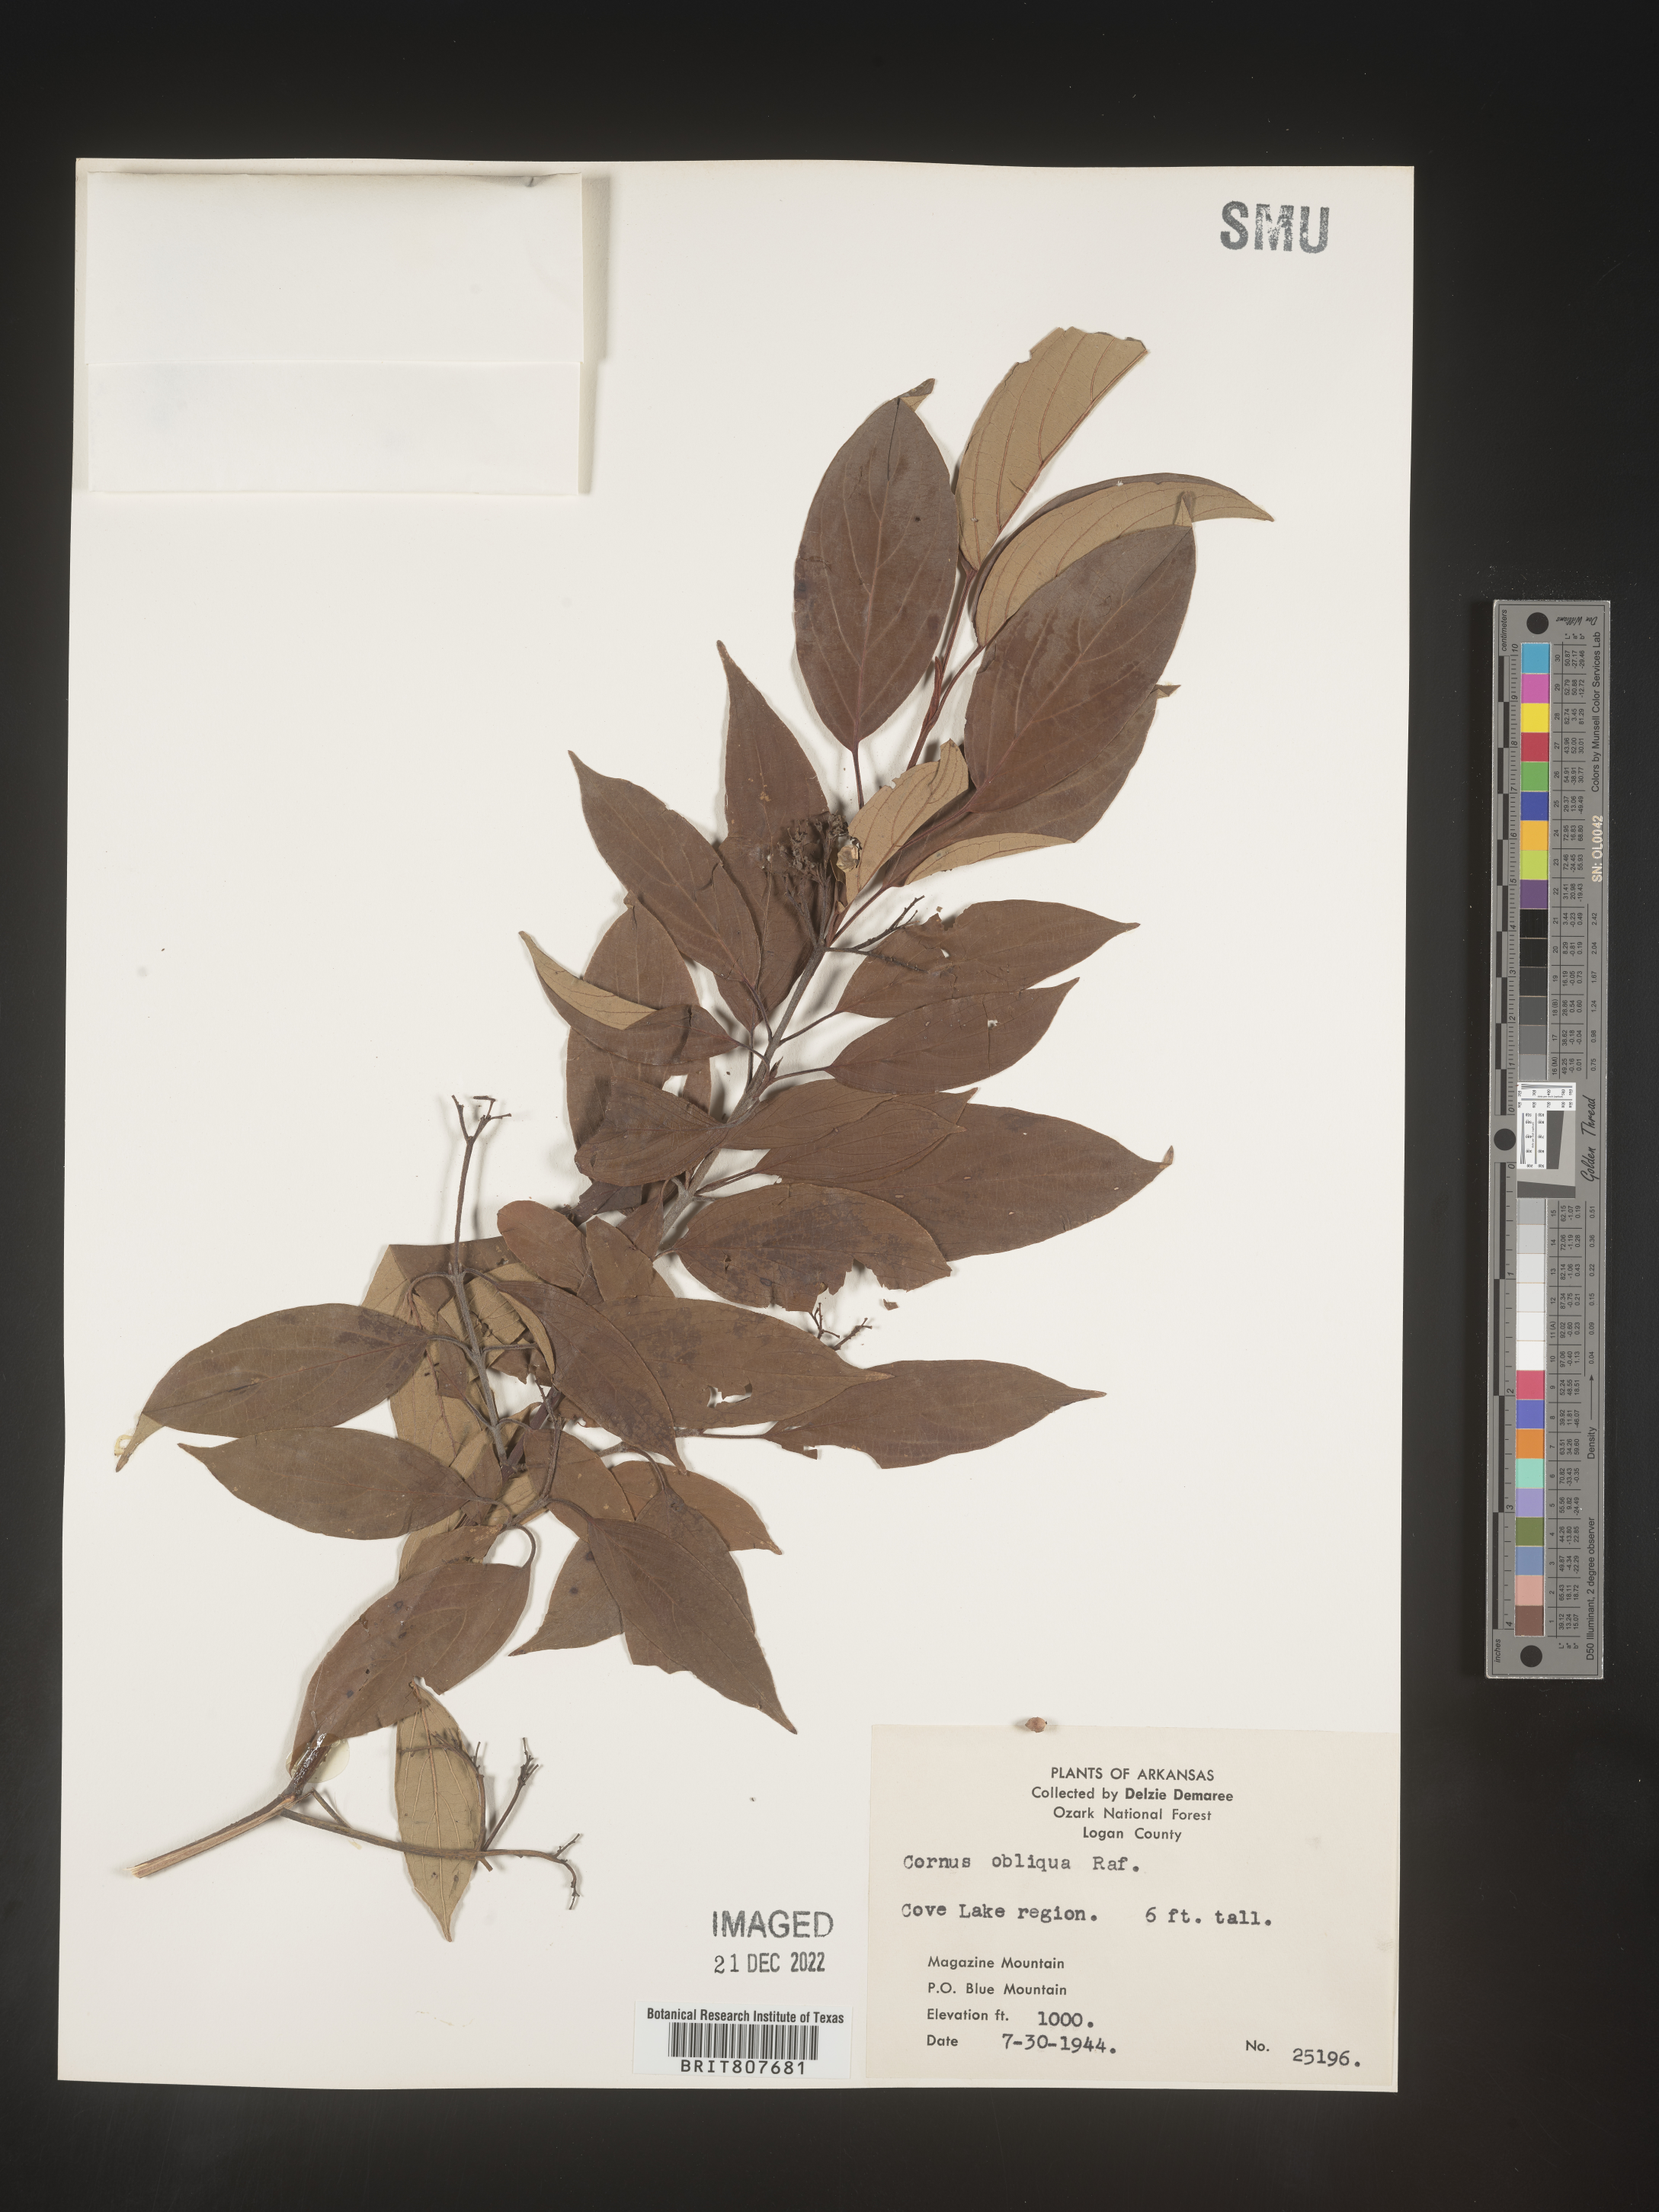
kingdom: Plantae
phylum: Tracheophyta
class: Magnoliopsida
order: Cornales
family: Cornaceae
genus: Cornus
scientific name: Cornus obliqua
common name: Pale dogwood
